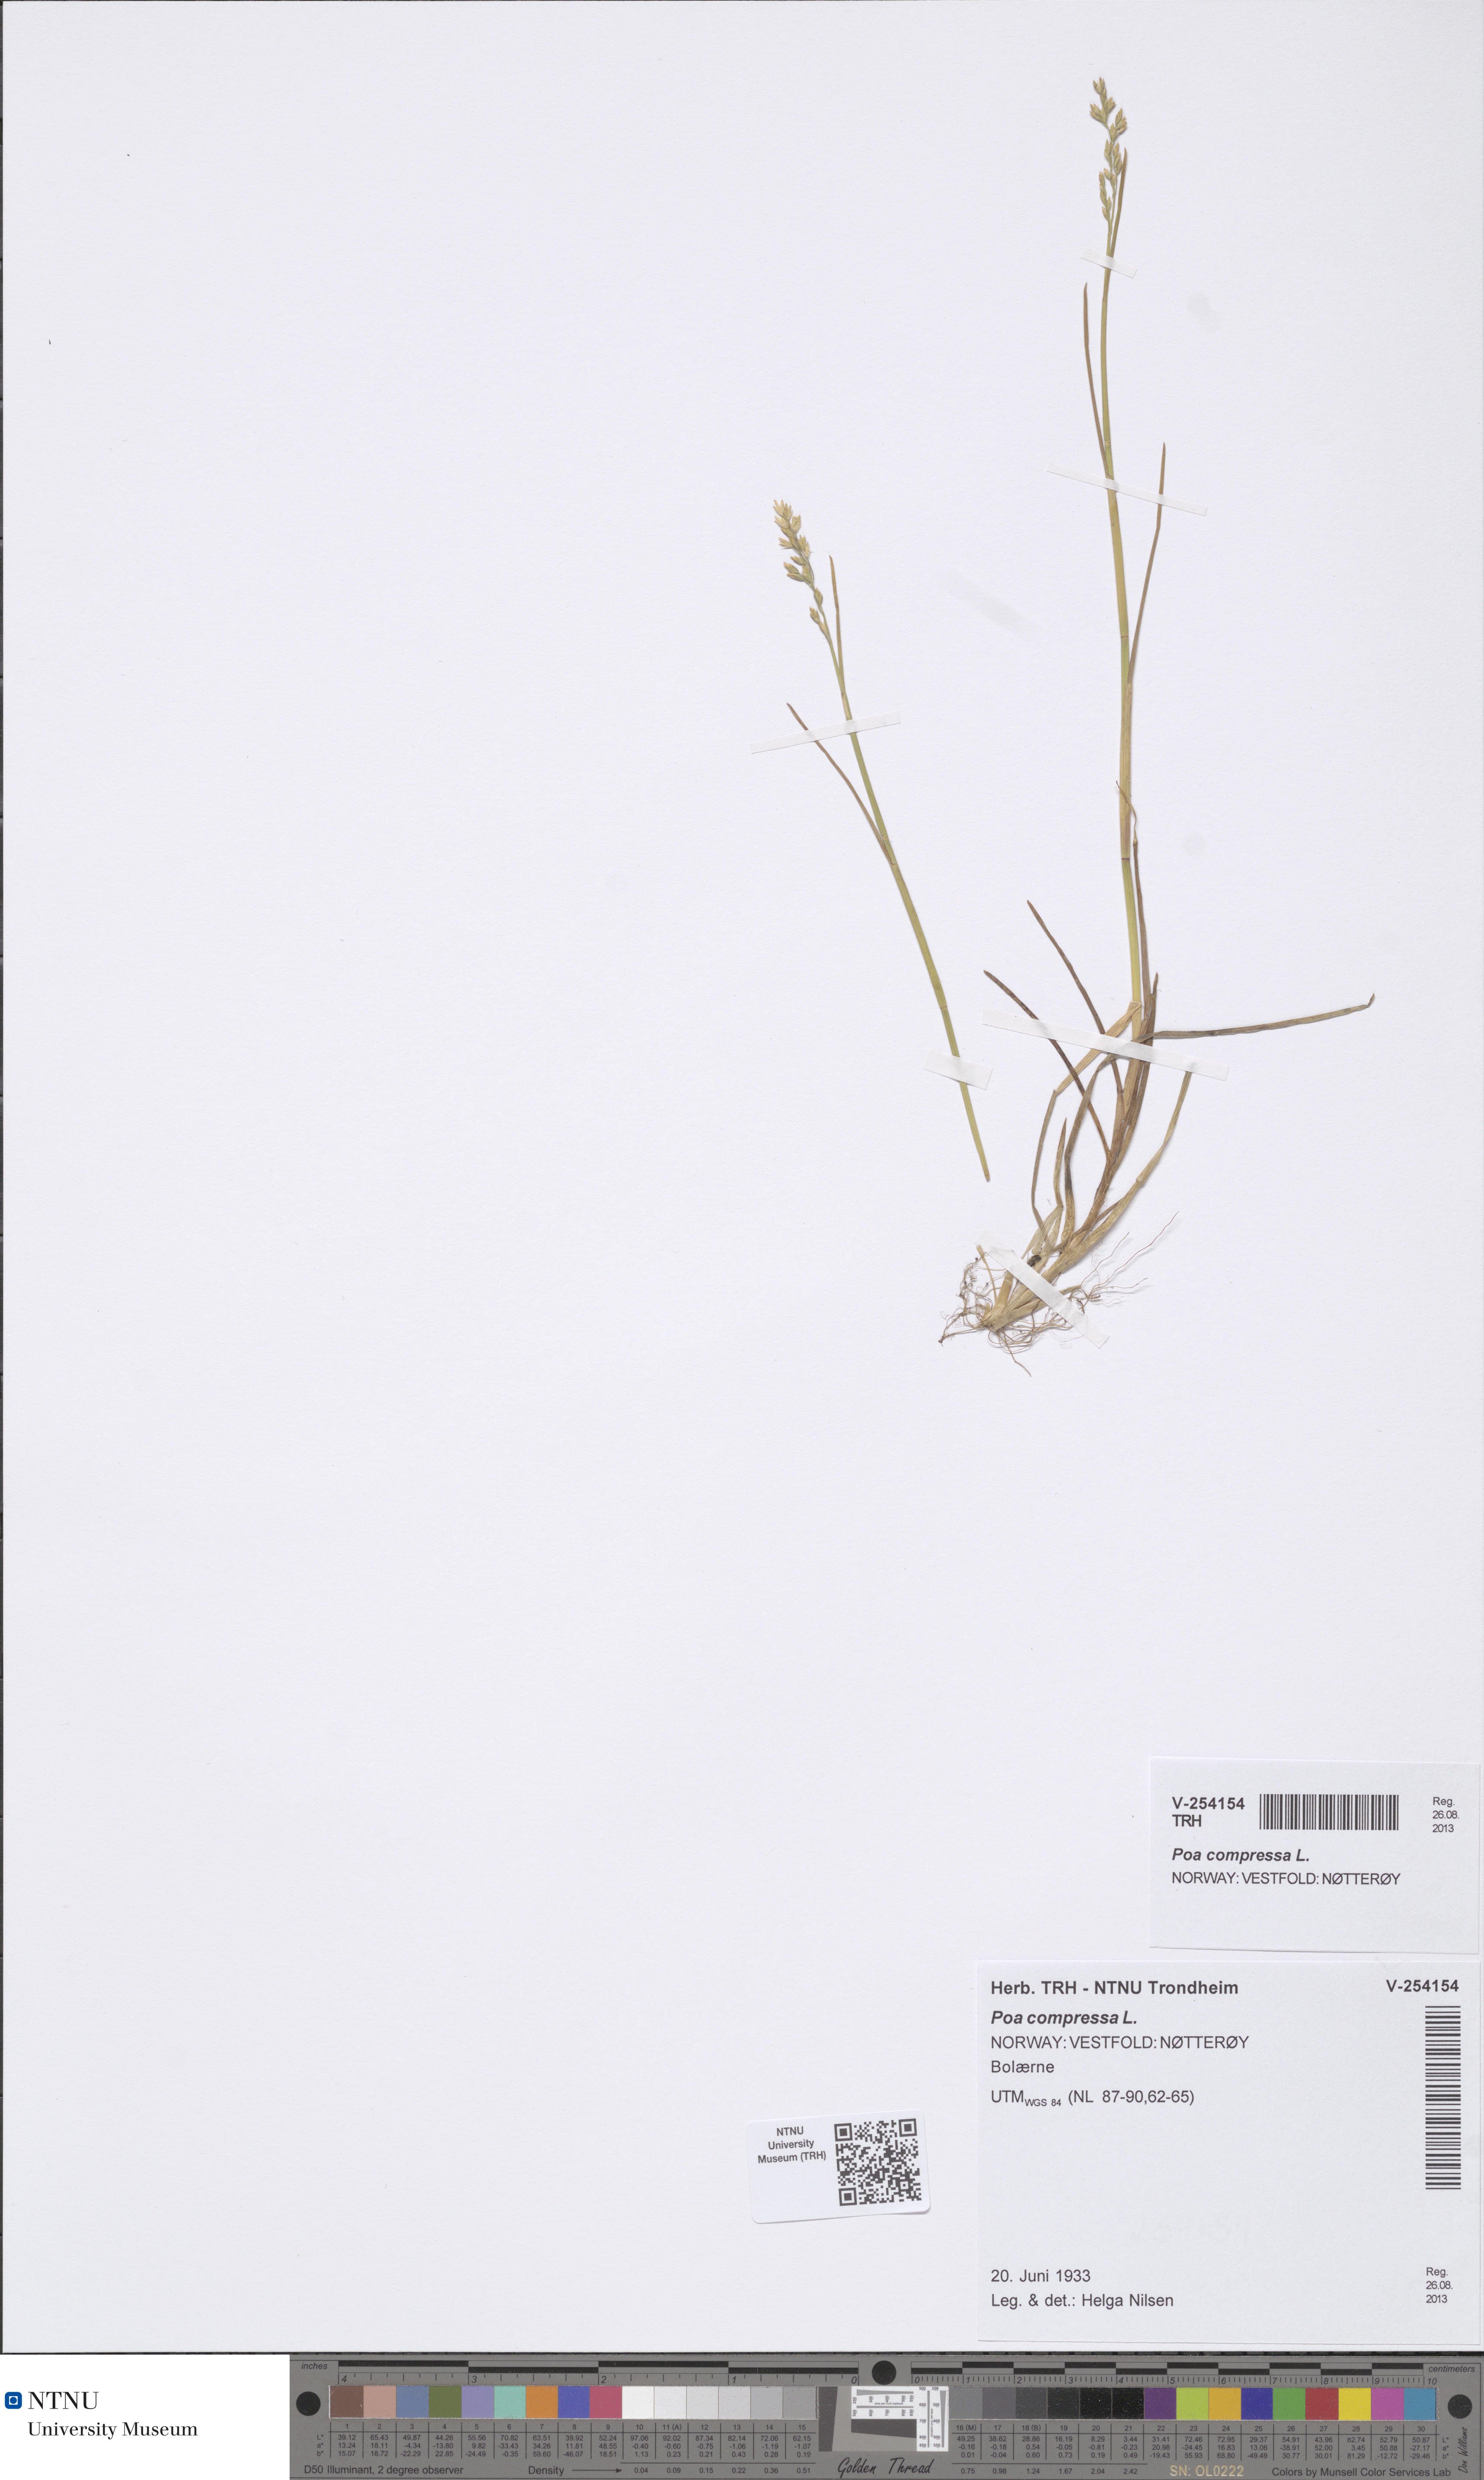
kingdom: Plantae
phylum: Tracheophyta
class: Liliopsida
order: Poales
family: Poaceae
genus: Poa
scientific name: Poa compressa
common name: Canada bluegrass
